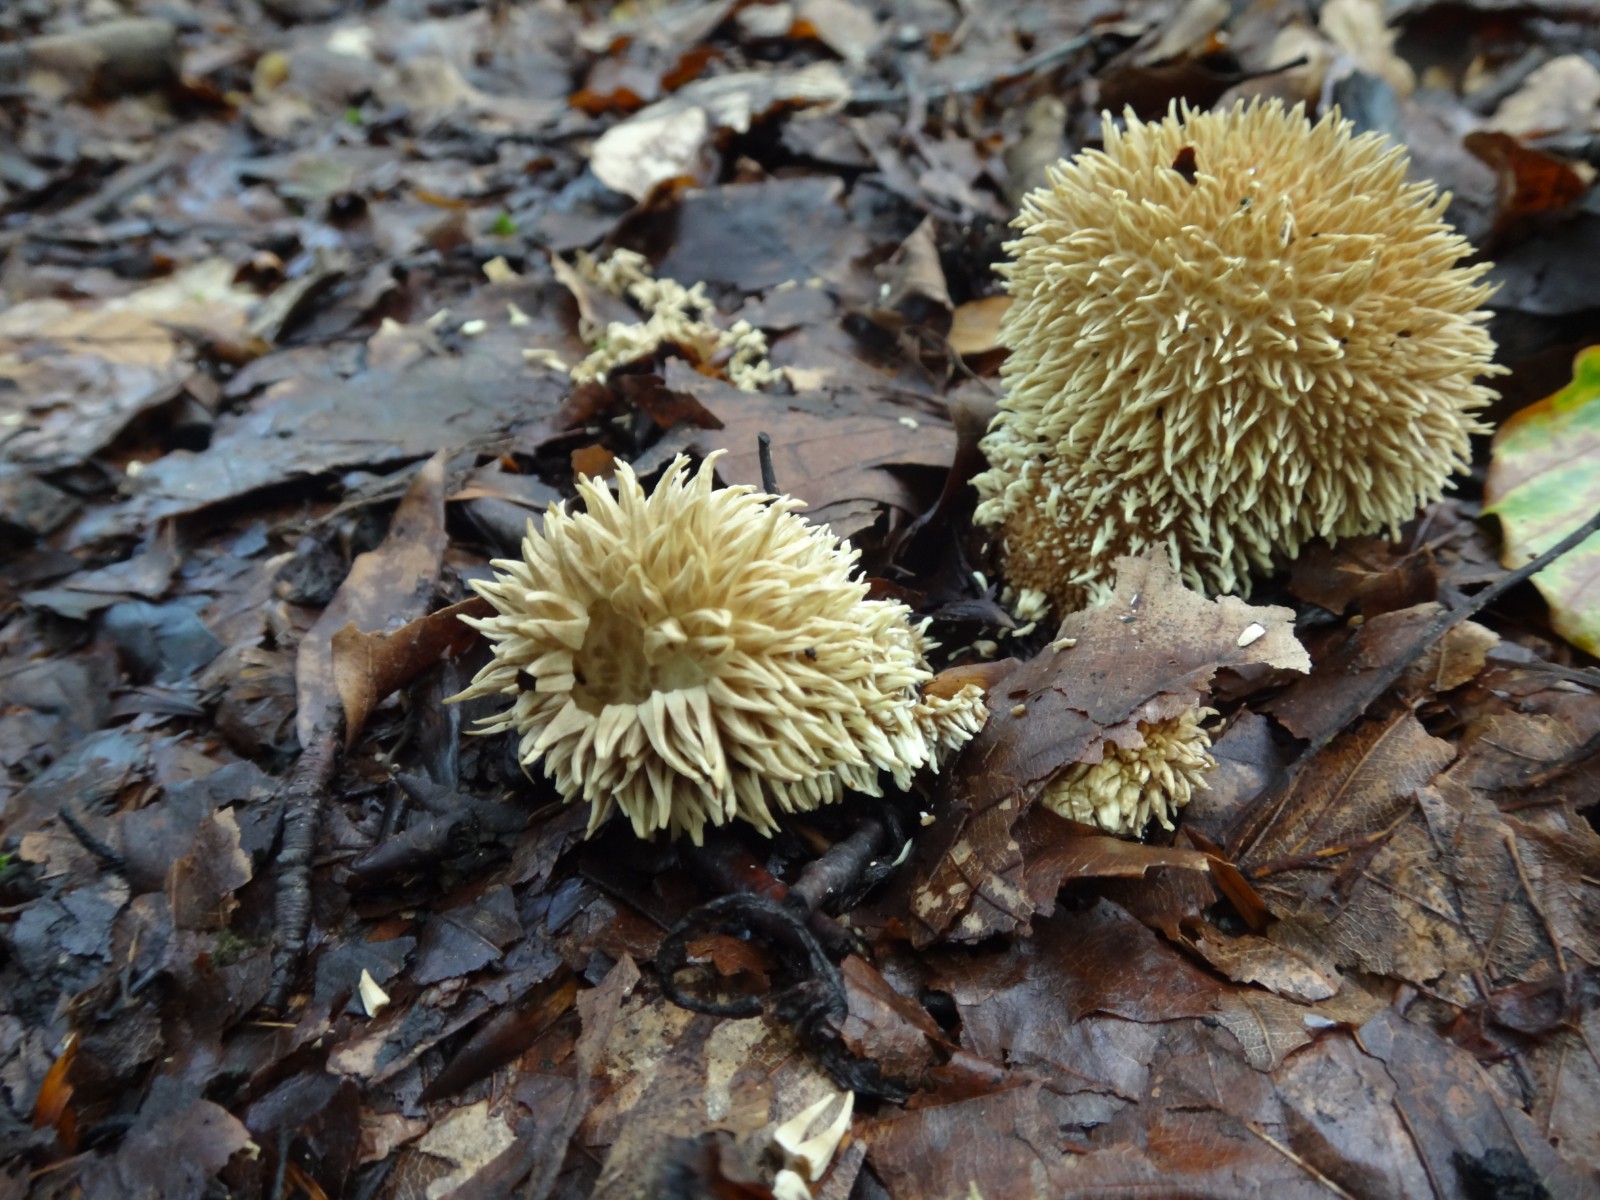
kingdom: Fungi
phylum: Basidiomycota
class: Agaricomycetes
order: Agaricales
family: Lycoperdaceae
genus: Lycoperdon
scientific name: Lycoperdon echinatum
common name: pindsvine-støvbold
